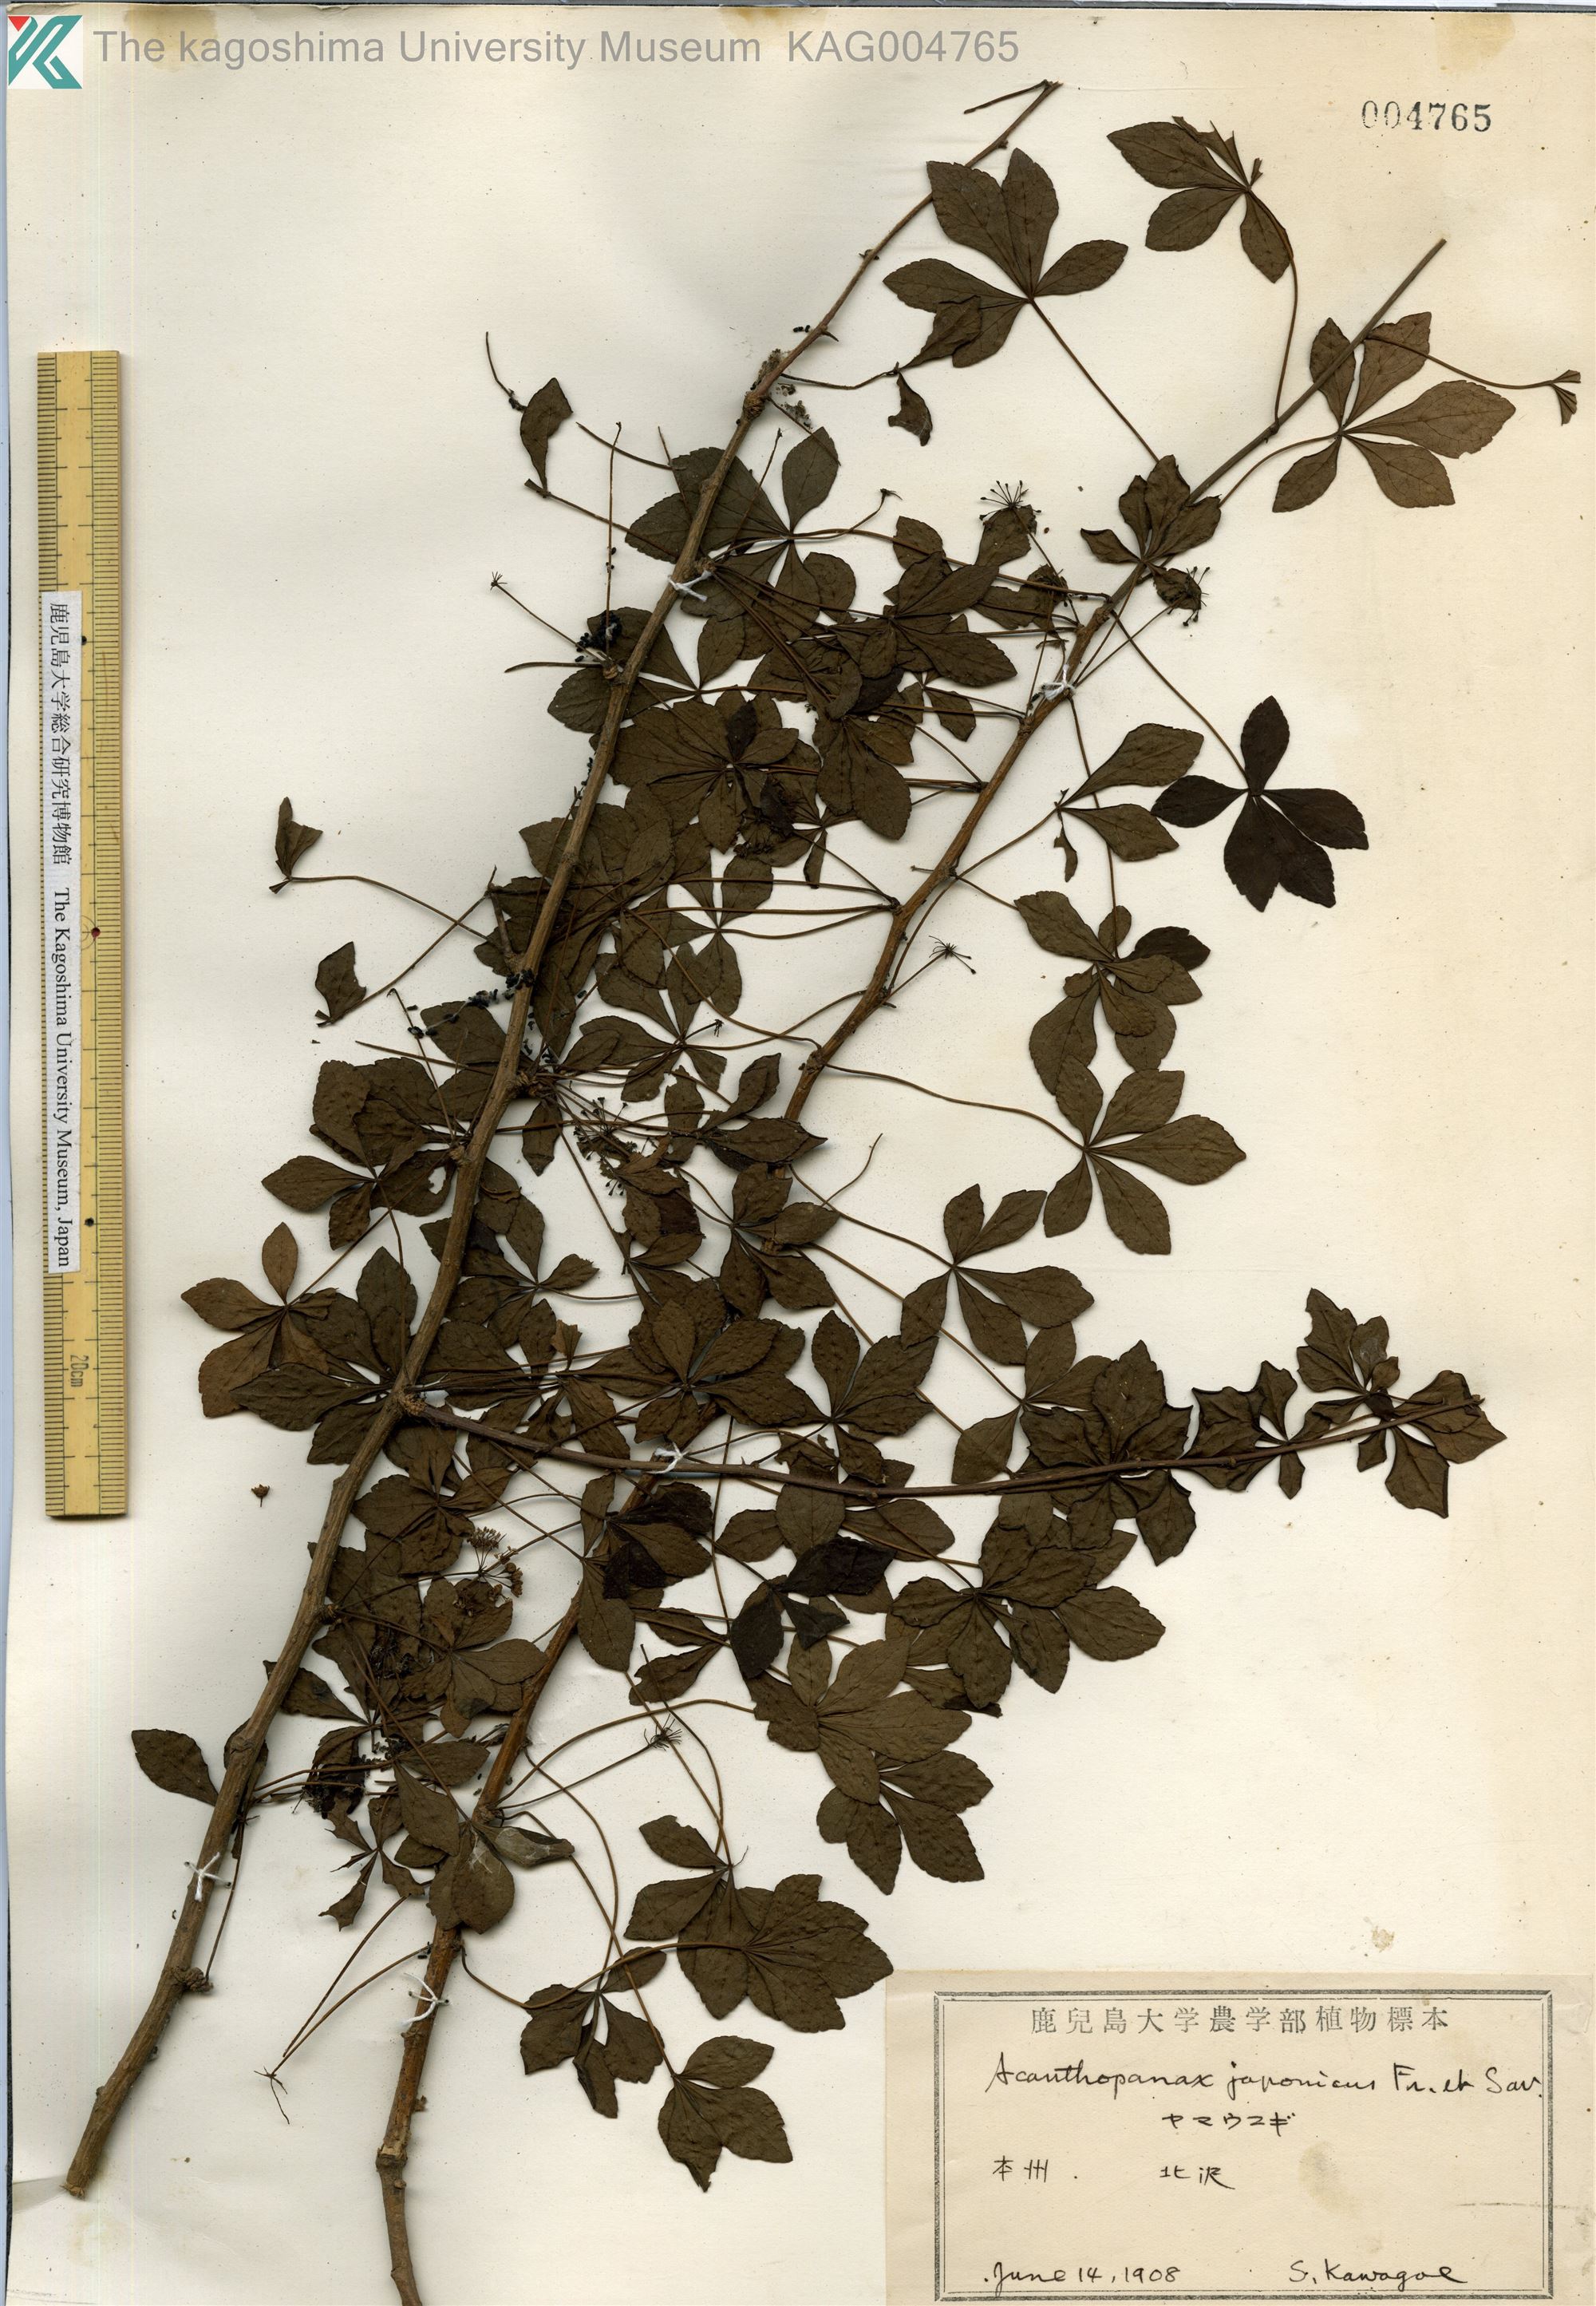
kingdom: Plantae
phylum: Tracheophyta
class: Magnoliopsida
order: Apiales
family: Araliaceae
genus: Eleutherococcus
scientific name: Eleutherococcus japonicus
